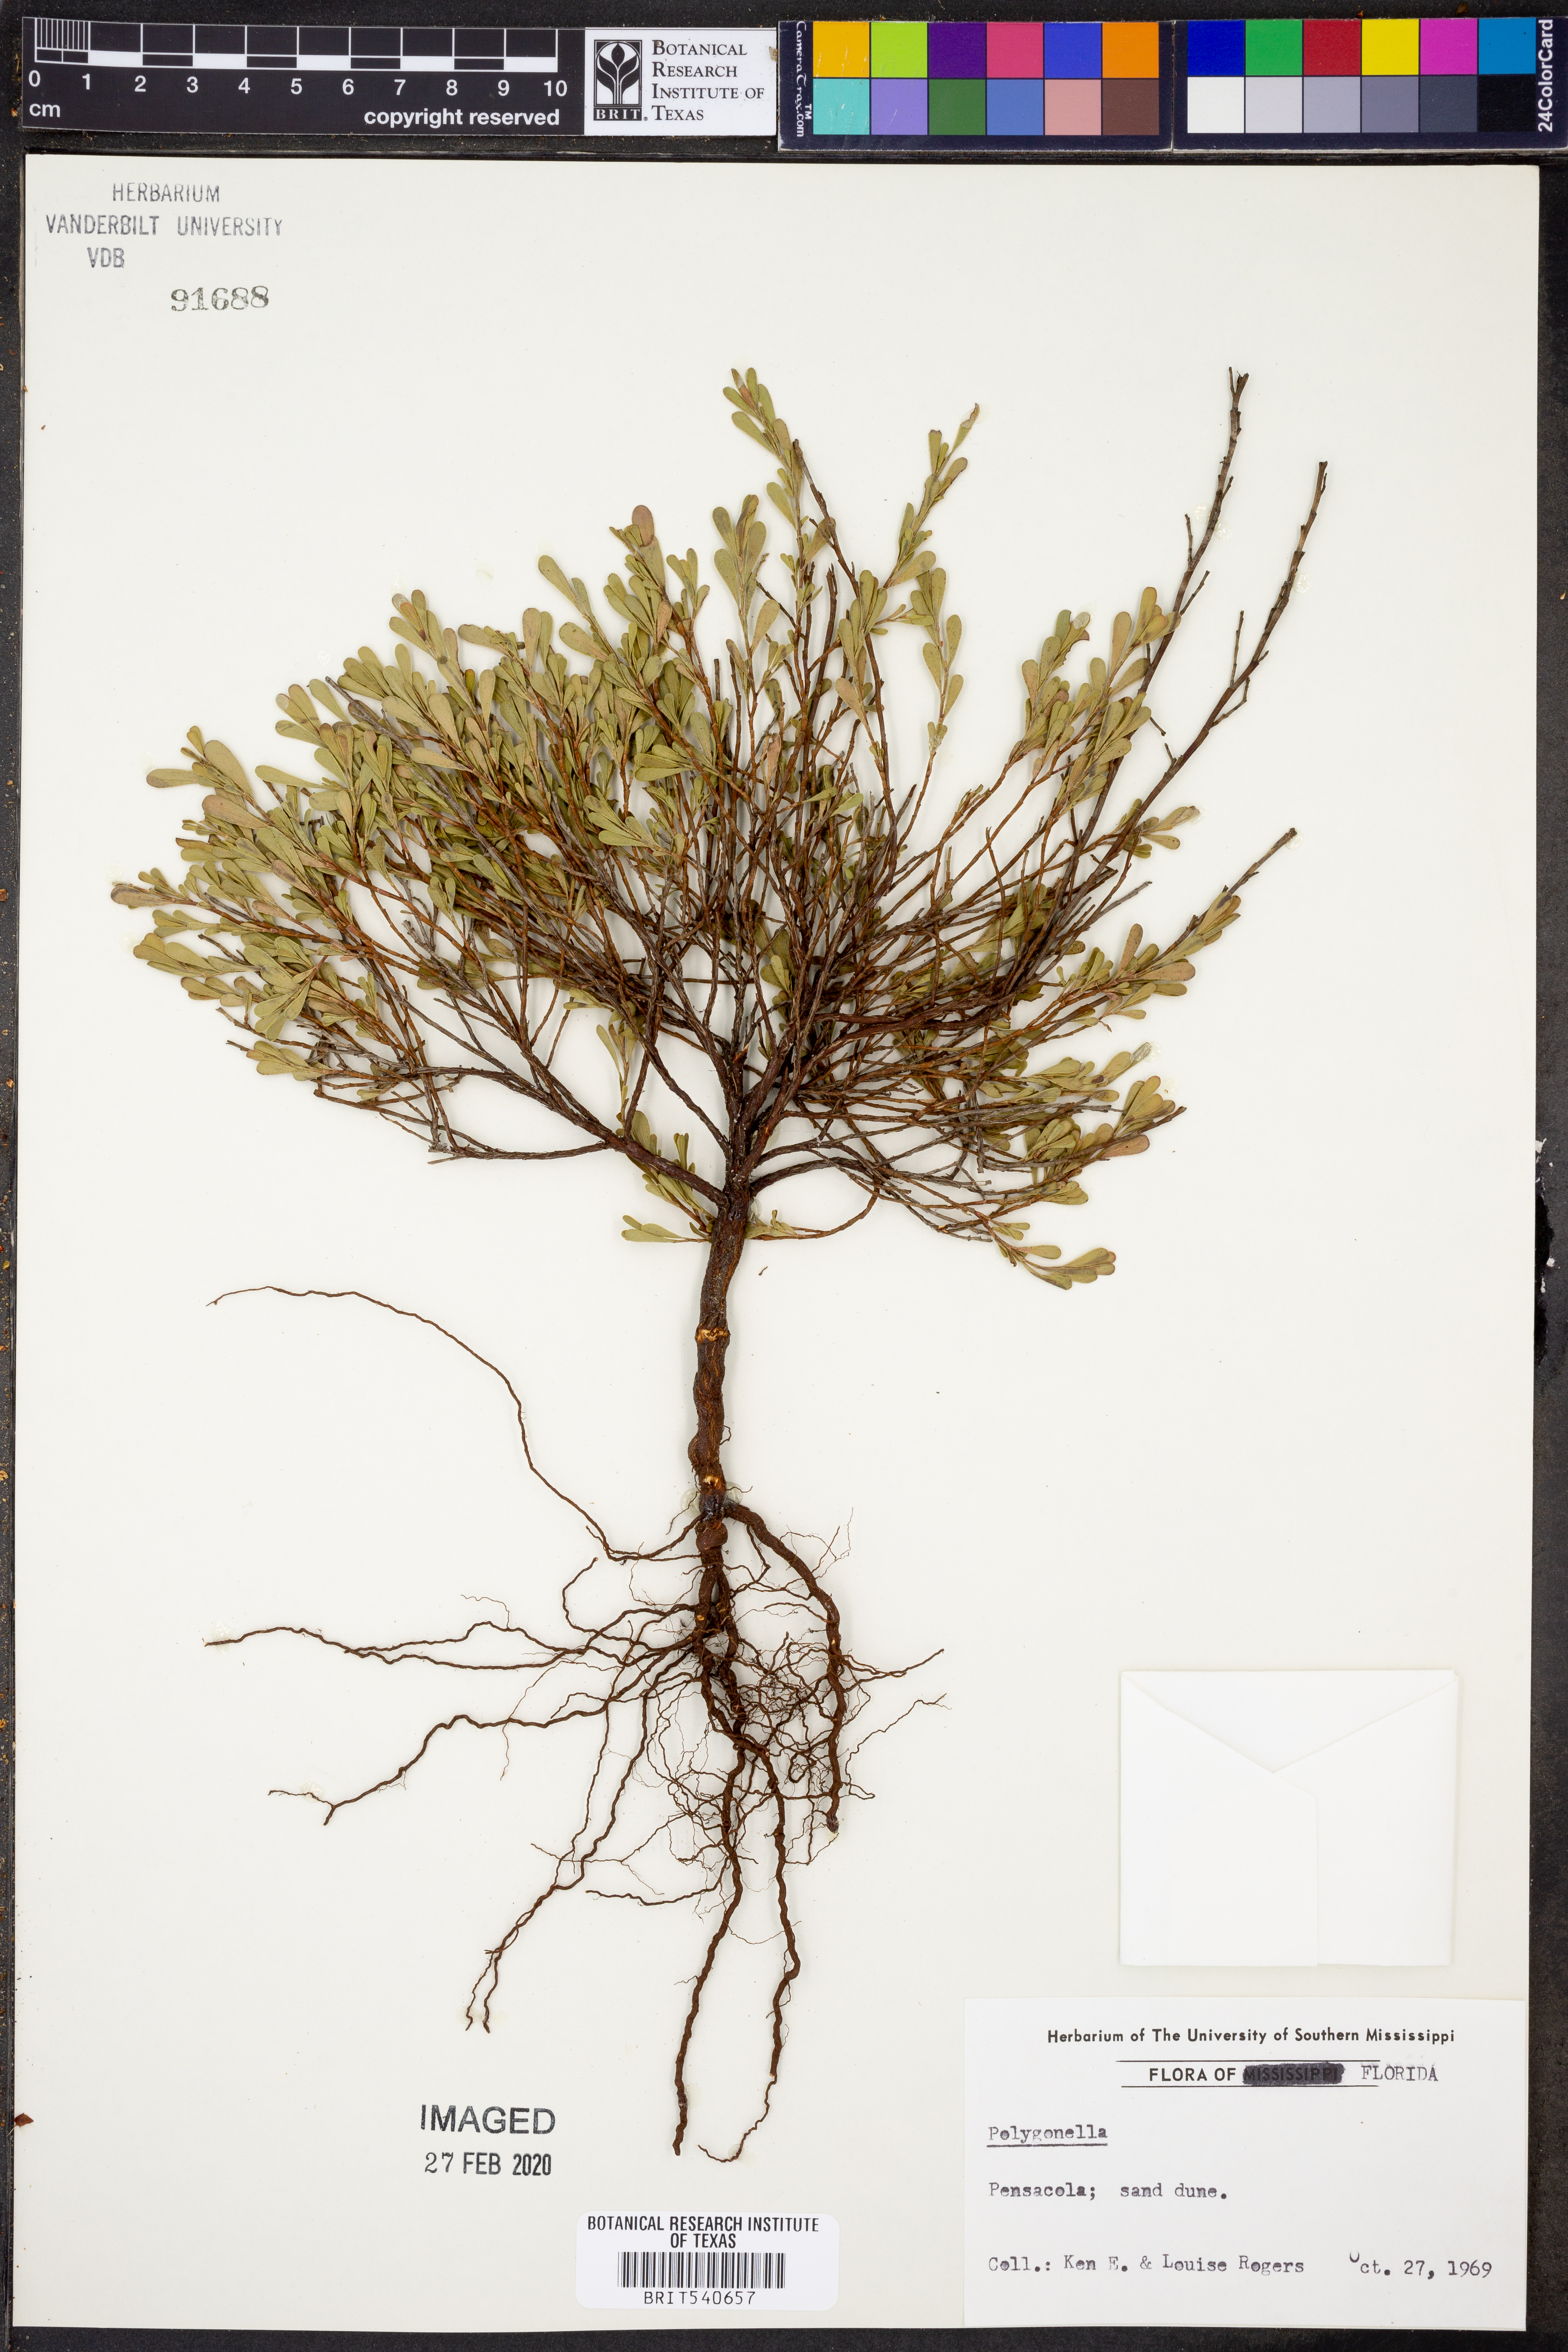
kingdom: Plantae
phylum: Tracheophyta
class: Magnoliopsida
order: Caryophyllales
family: Polygonaceae
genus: Polygonella
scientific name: Polygonella
